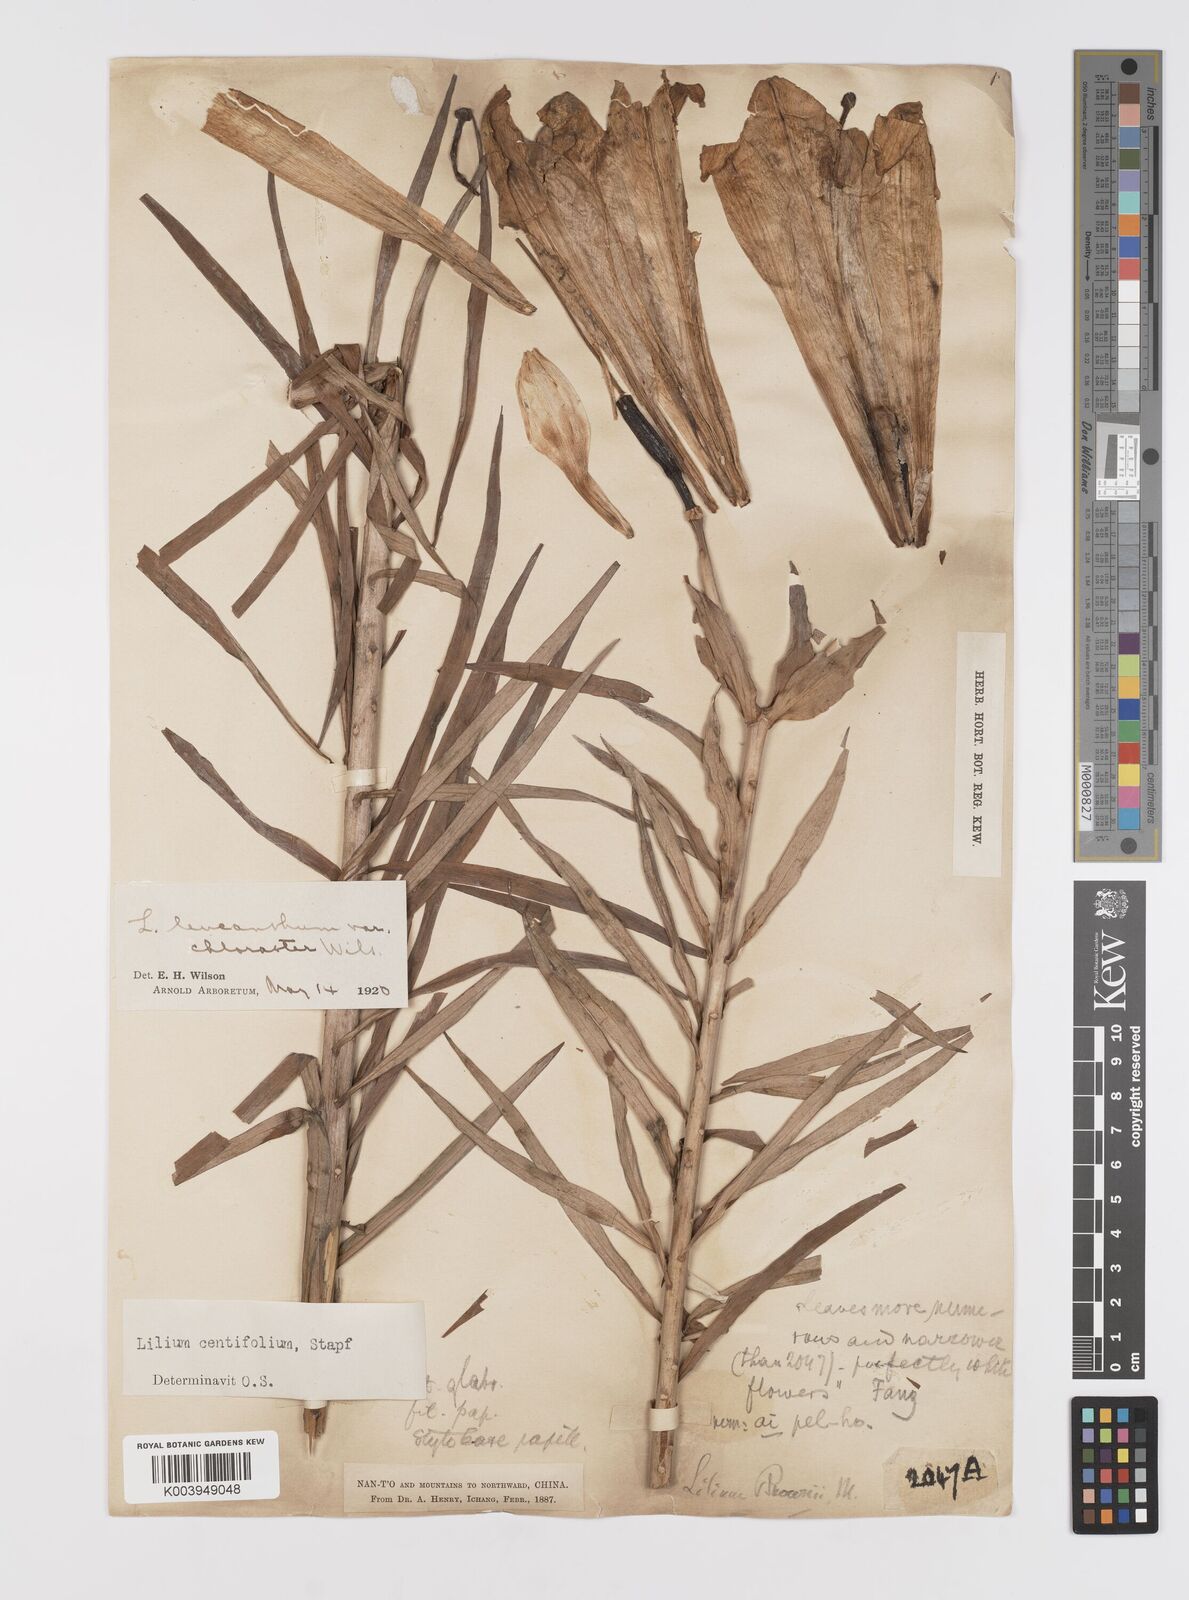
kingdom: Plantae
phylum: Tracheophyta
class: Liliopsida
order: Liliales
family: Liliaceae
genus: Lilium
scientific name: Lilium leucanthum
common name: Chinese white lily
